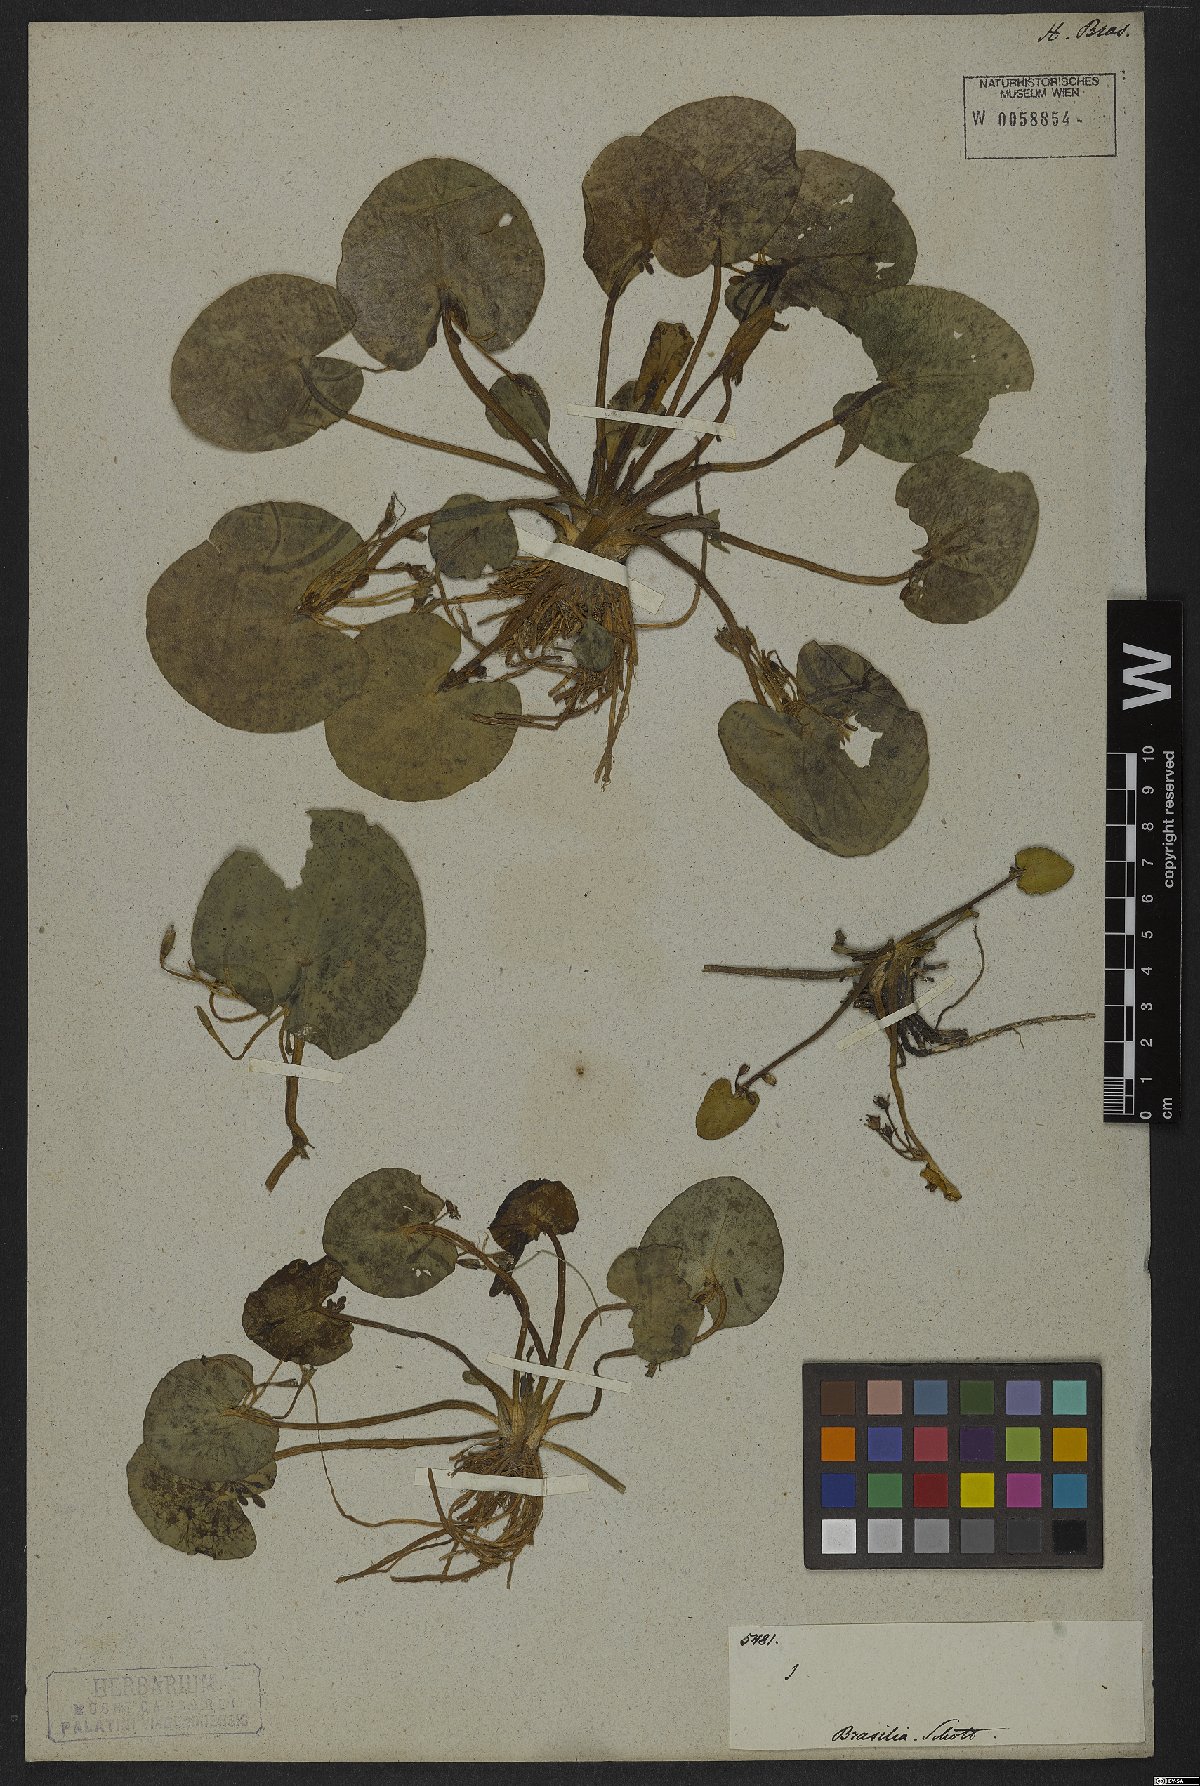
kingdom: Plantae
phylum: Tracheophyta
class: Magnoliopsida
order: Asterales
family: Menyanthaceae
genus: Nymphoides
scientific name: Nymphoides humboldtiana
